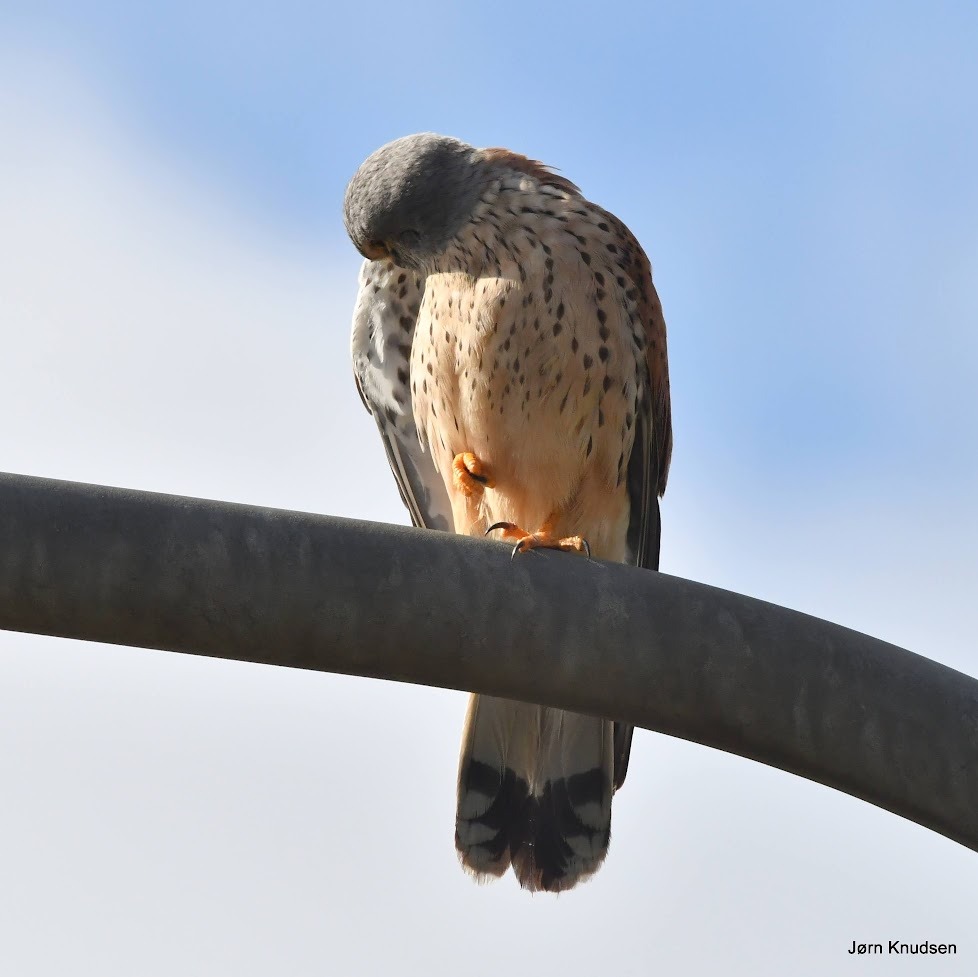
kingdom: Animalia
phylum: Chordata
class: Aves
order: Falconiformes
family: Falconidae
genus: Falco
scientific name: Falco tinnunculus
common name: Tårnfalk
